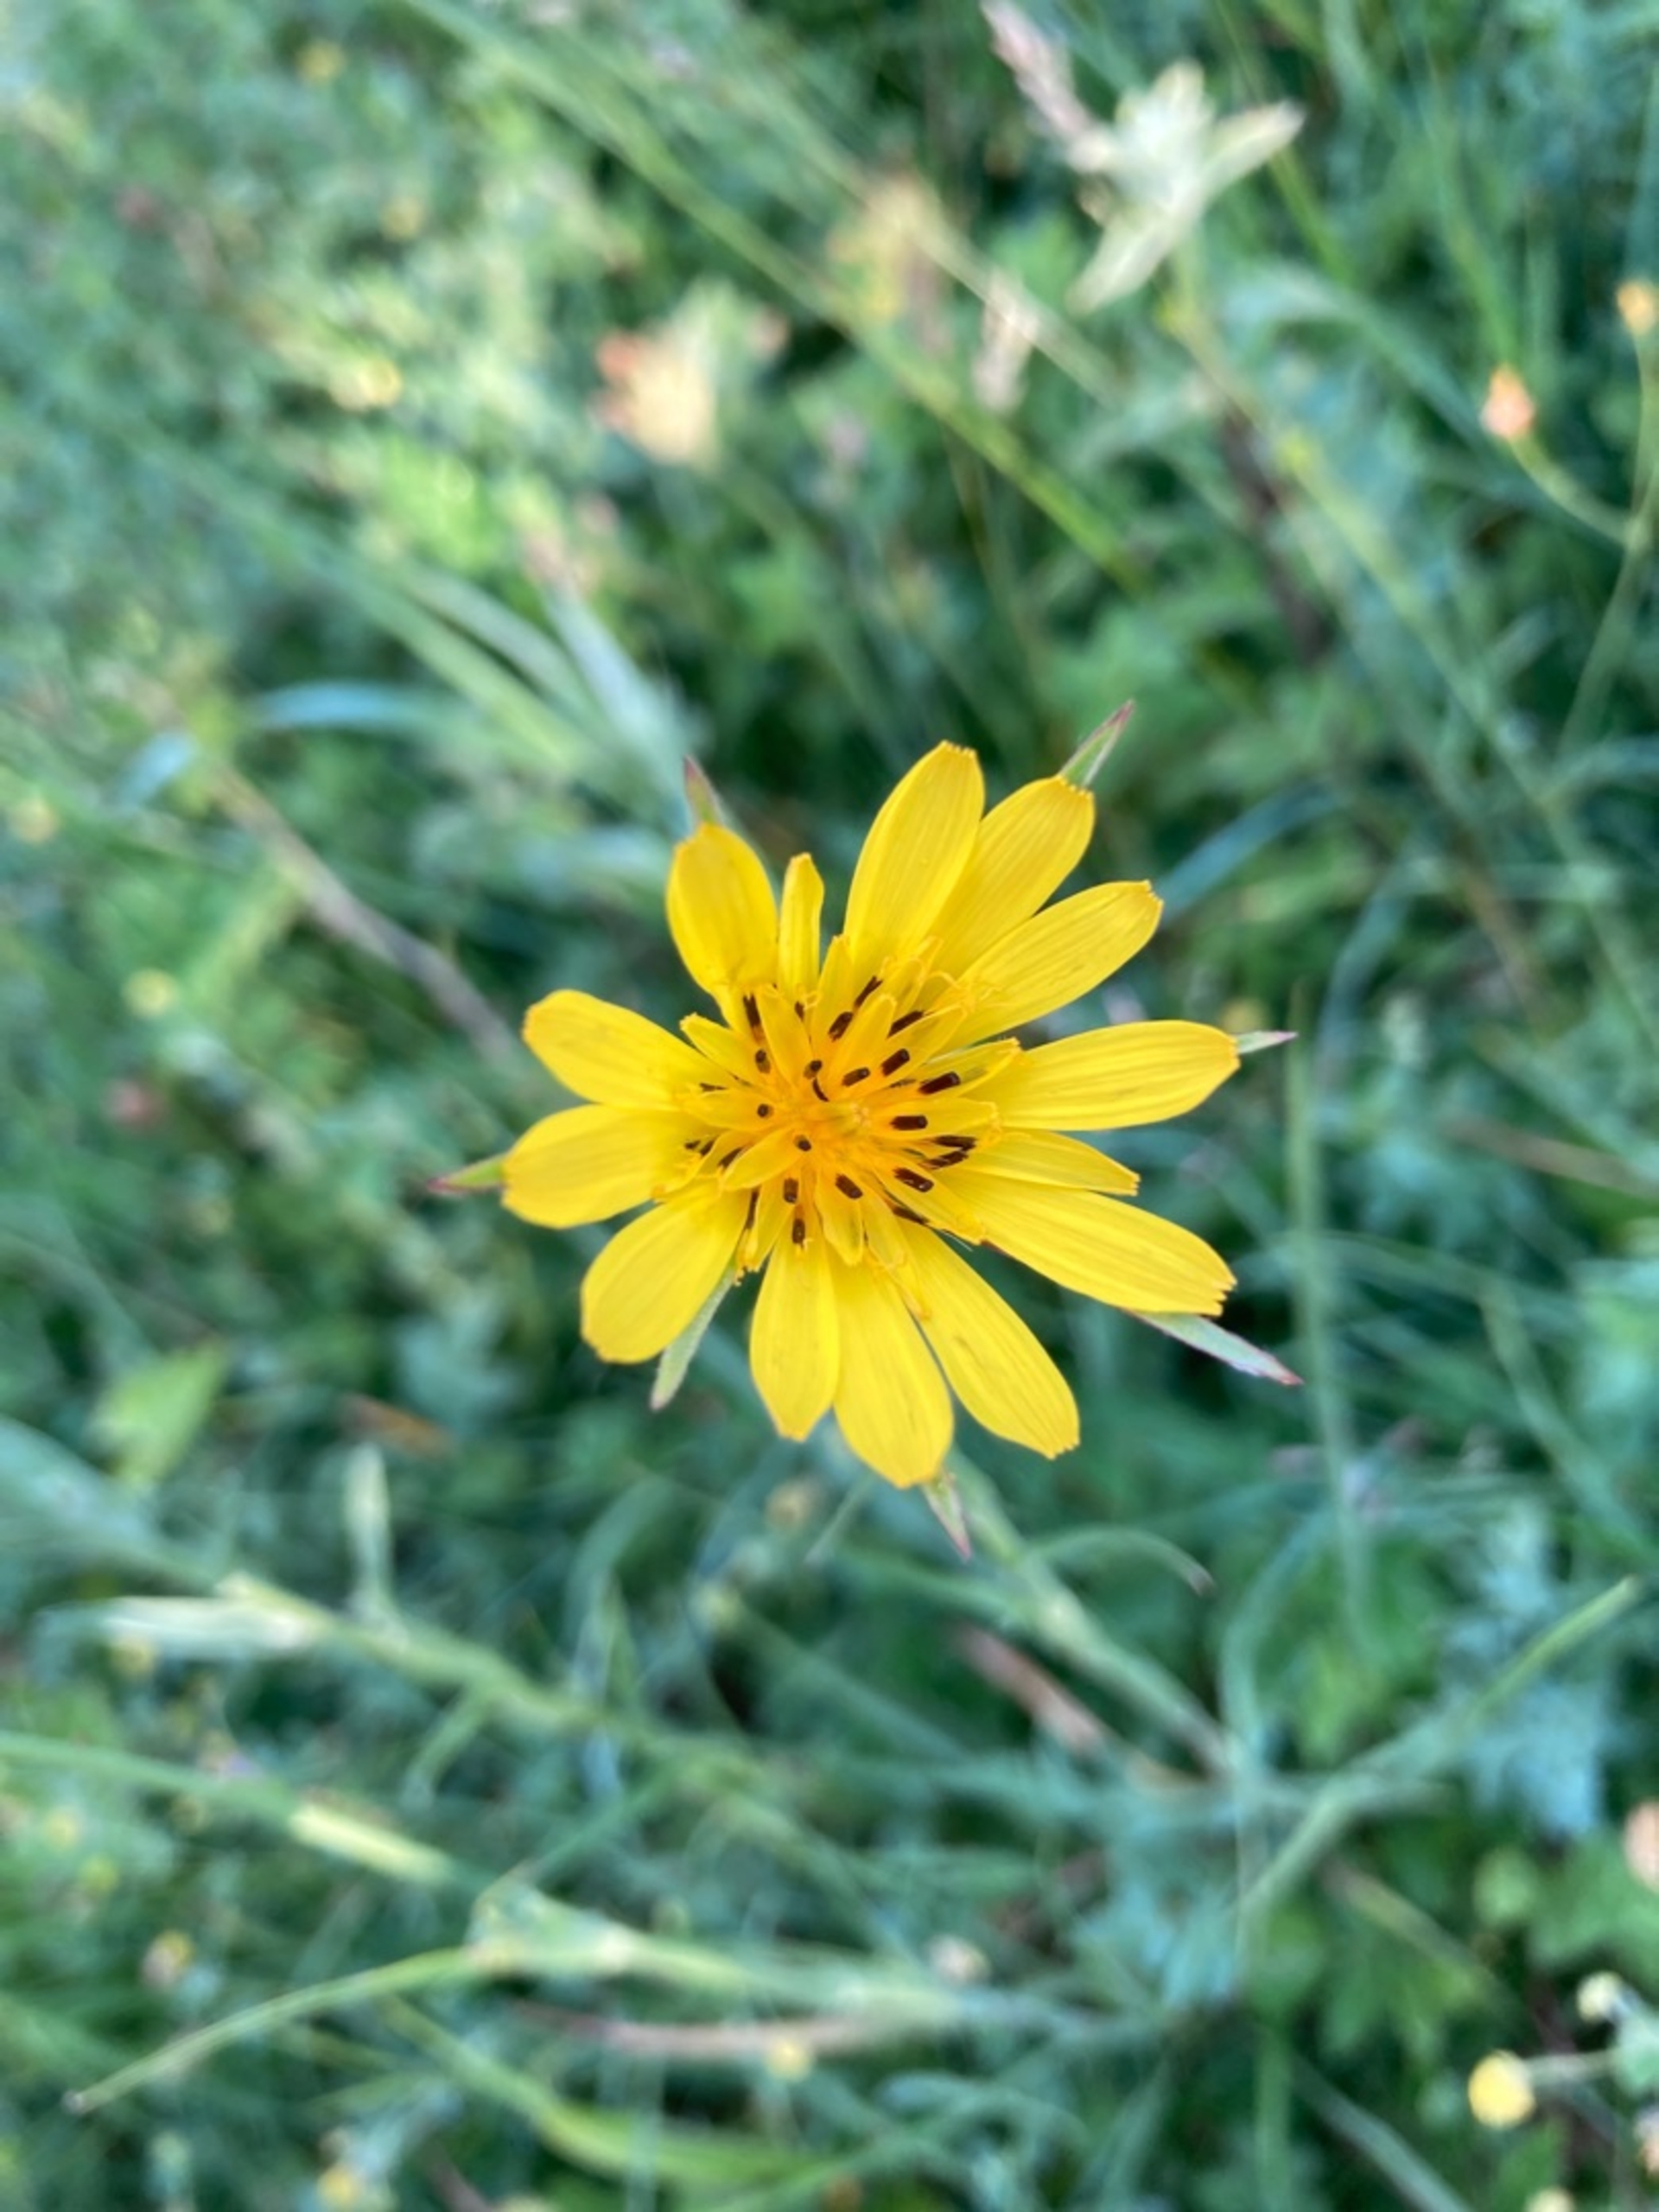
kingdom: Plantae
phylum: Tracheophyta
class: Magnoliopsida
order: Asterales
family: Asteraceae
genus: Tragopogon
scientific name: Tragopogon minor
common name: Småkronet gedeskæg
